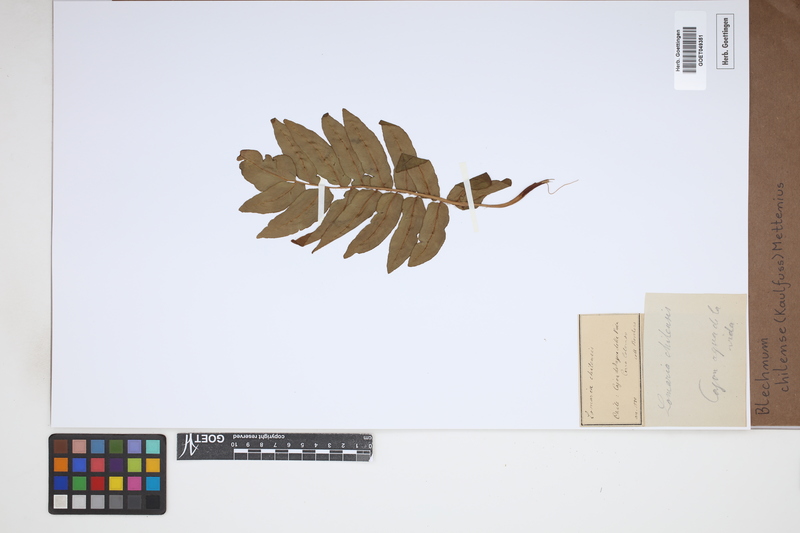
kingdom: Plantae
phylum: Tracheophyta
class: Polypodiopsida
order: Polypodiales
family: Blechnaceae
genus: Parablechnum
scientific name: Parablechnum chilense
